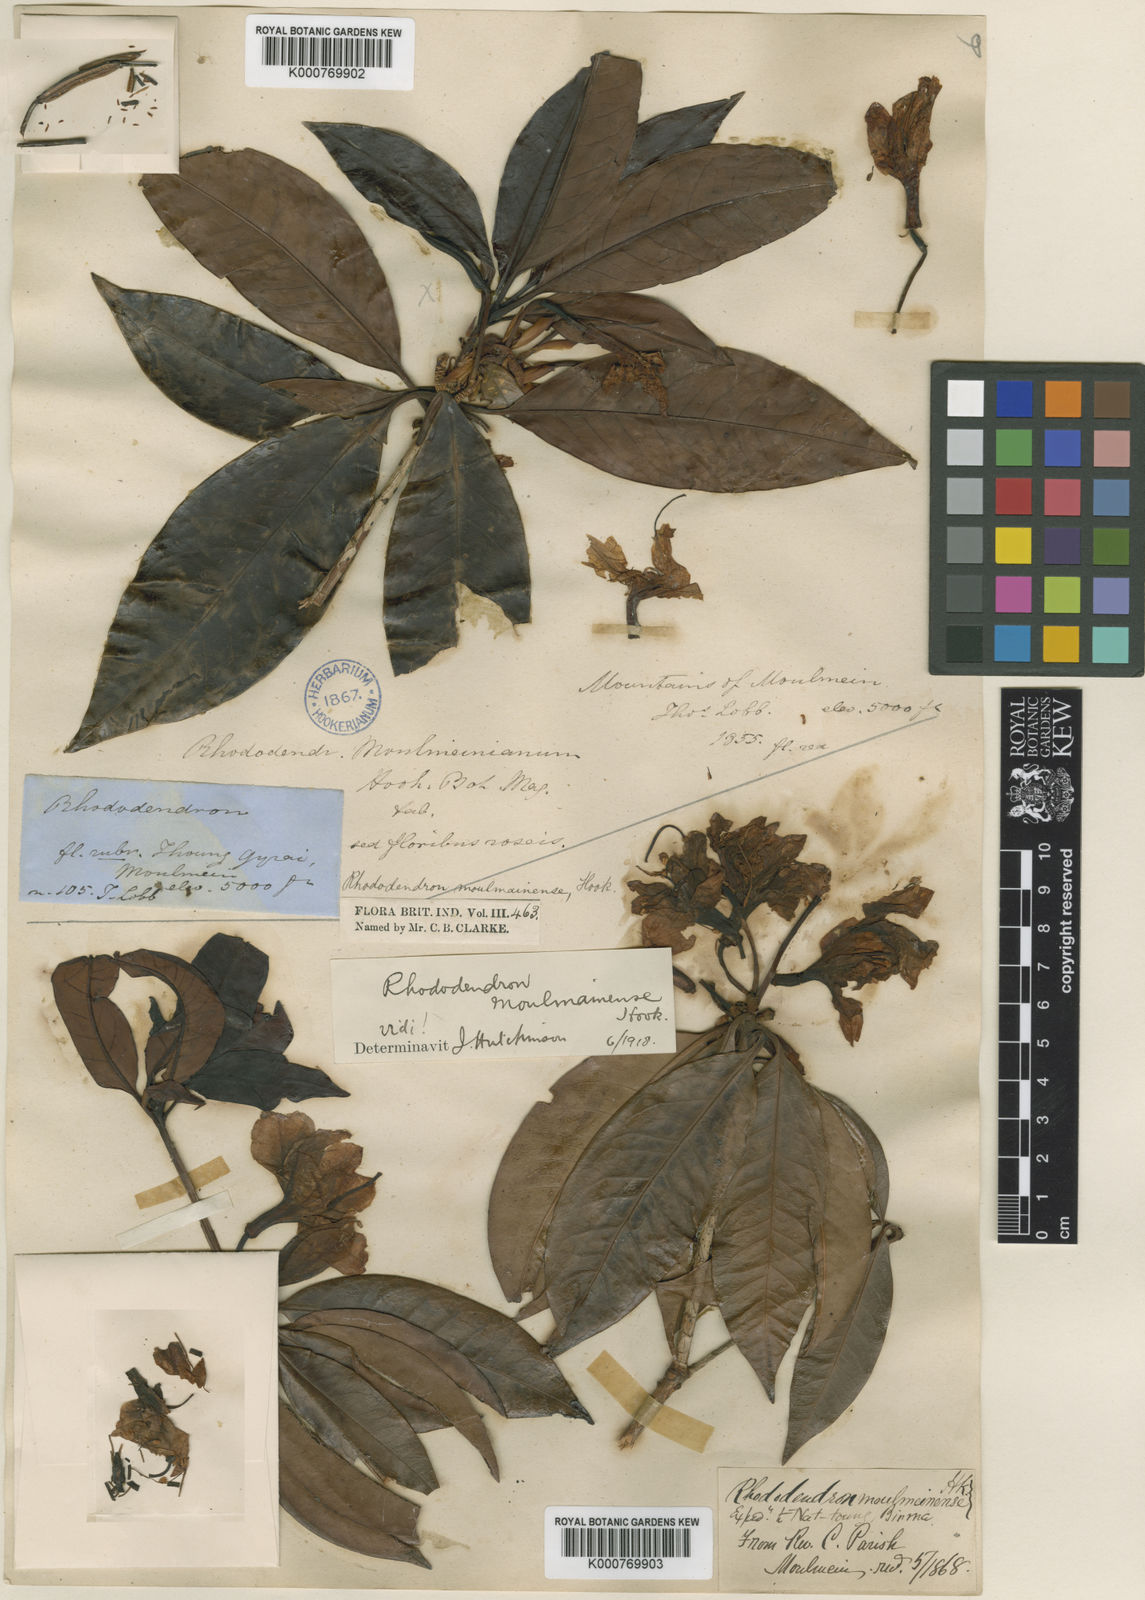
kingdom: Plantae
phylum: Tracheophyta
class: Magnoliopsida
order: Ericales
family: Ericaceae
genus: Rhododendron
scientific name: Rhododendron
